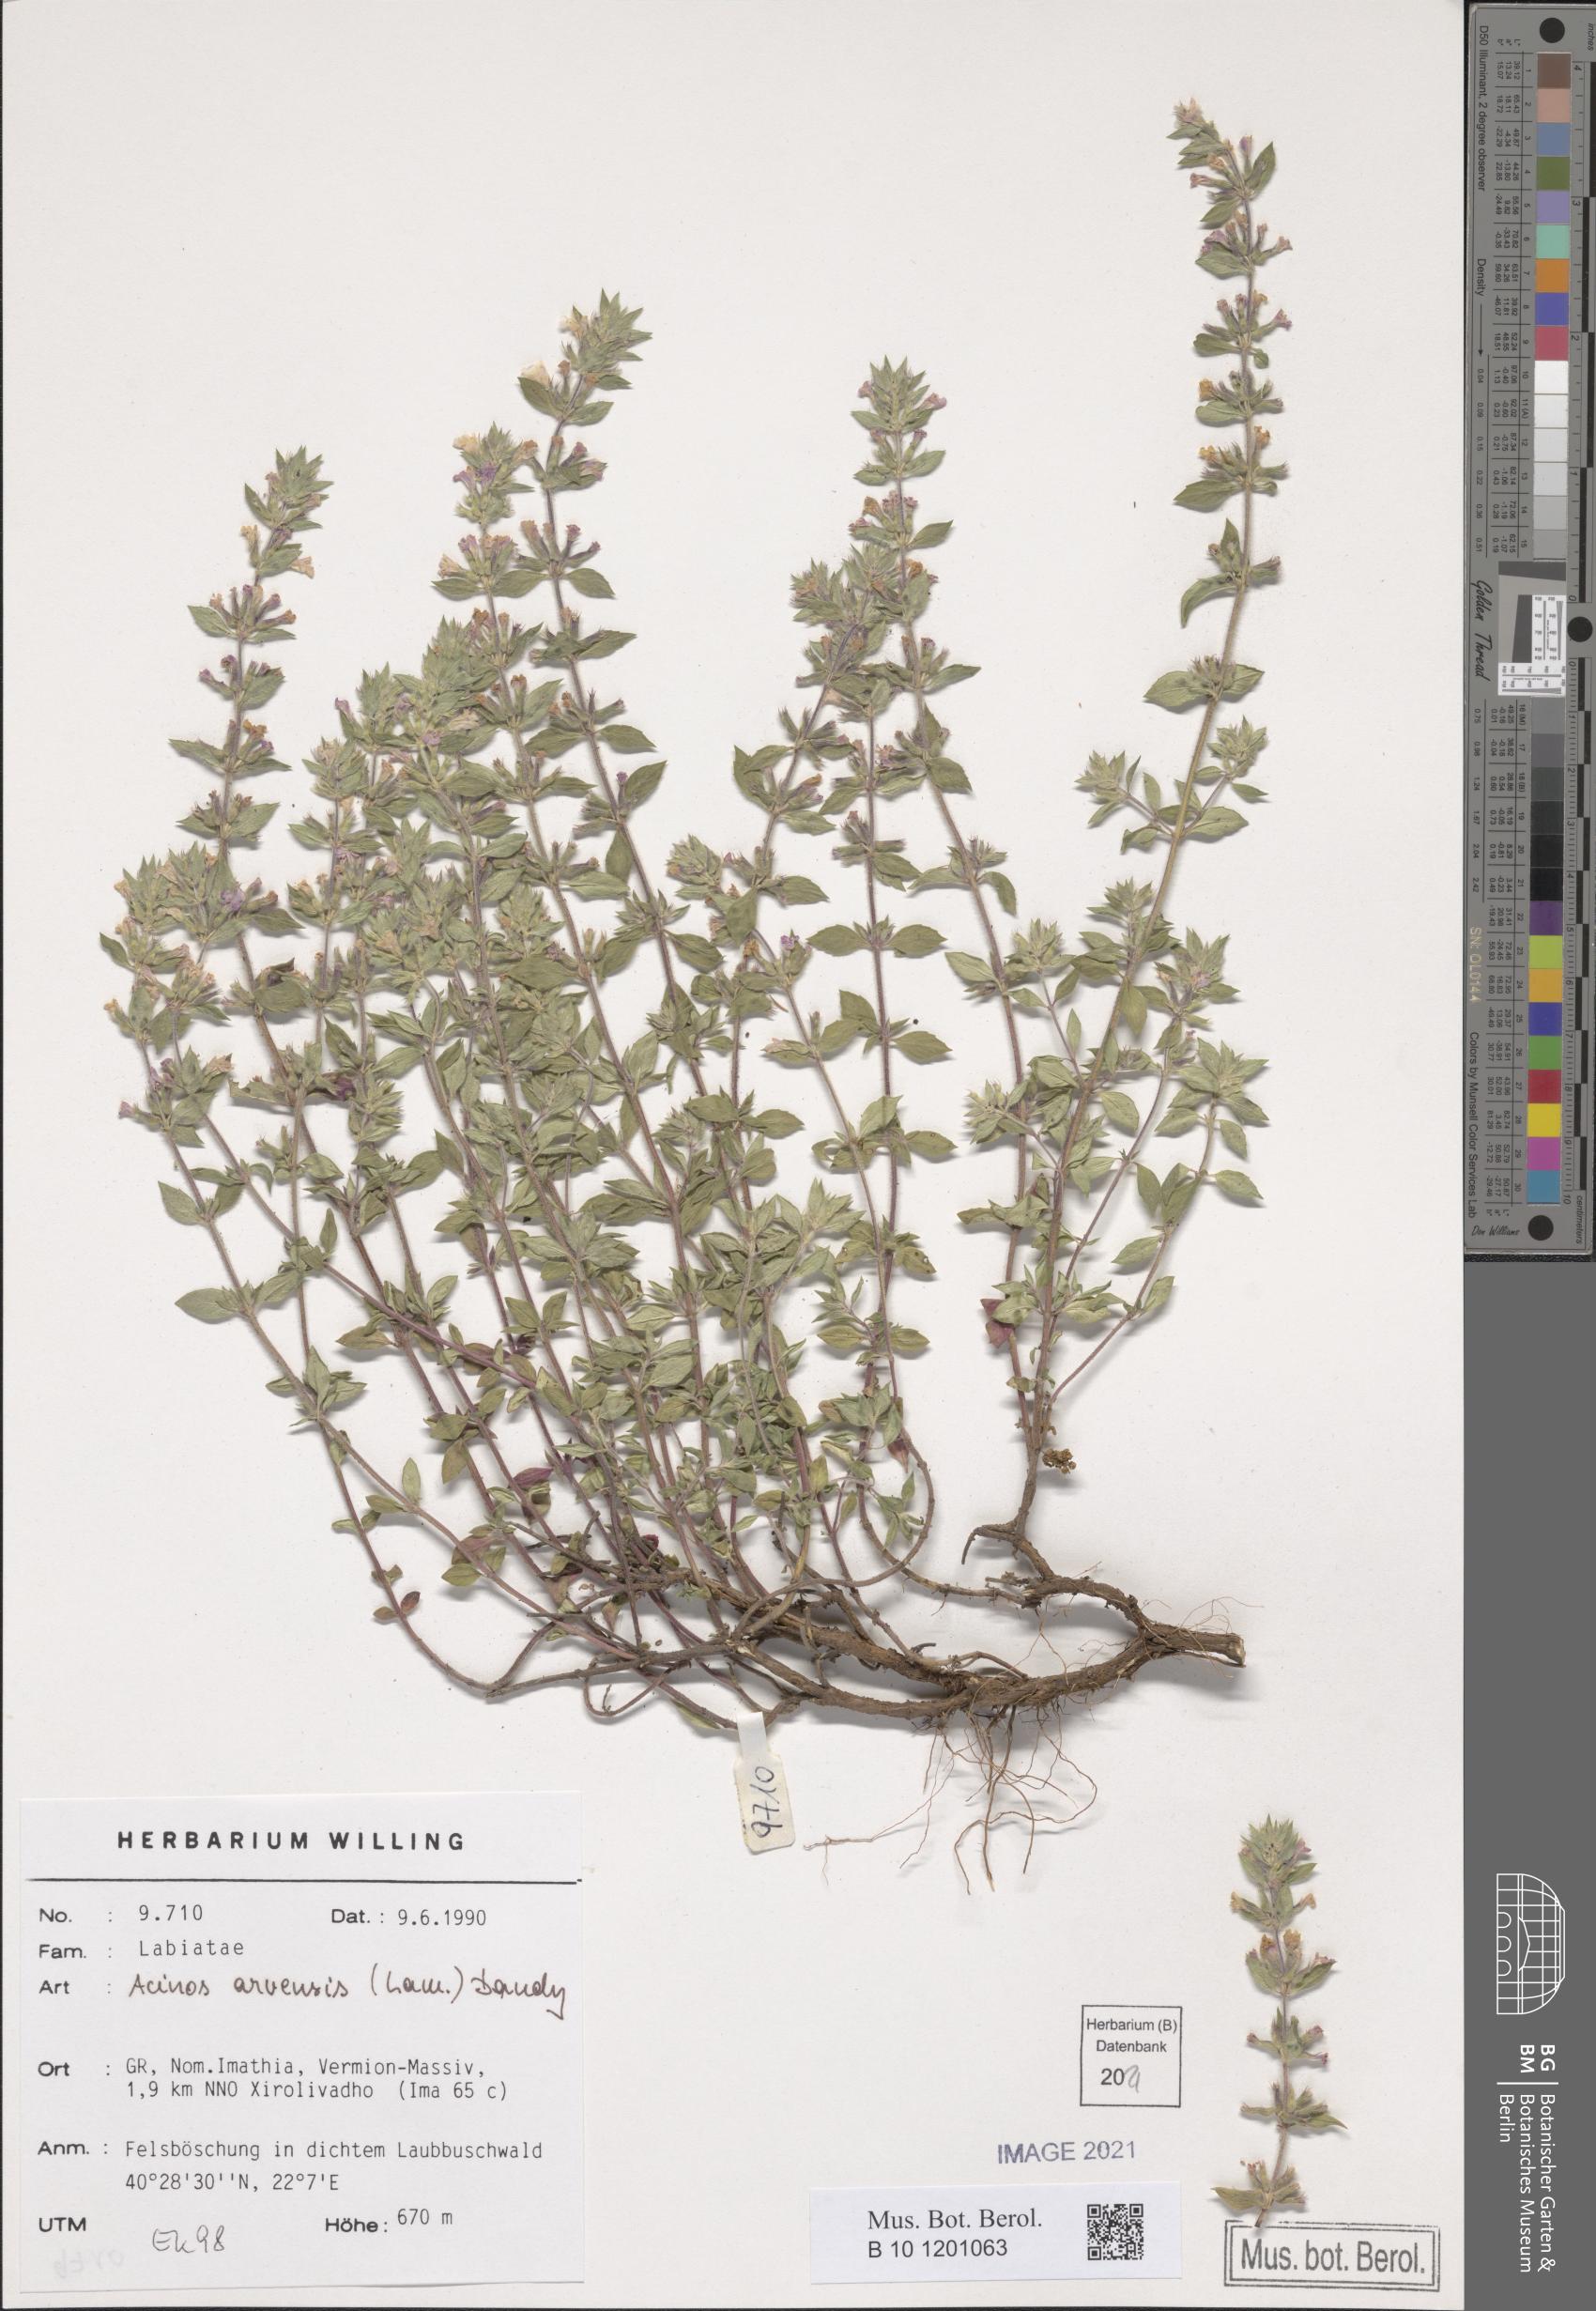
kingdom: Plantae
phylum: Tracheophyta
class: Magnoliopsida
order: Lamiales
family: Lamiaceae
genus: Clinopodium
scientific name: Clinopodium acinos
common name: Basil thyme
